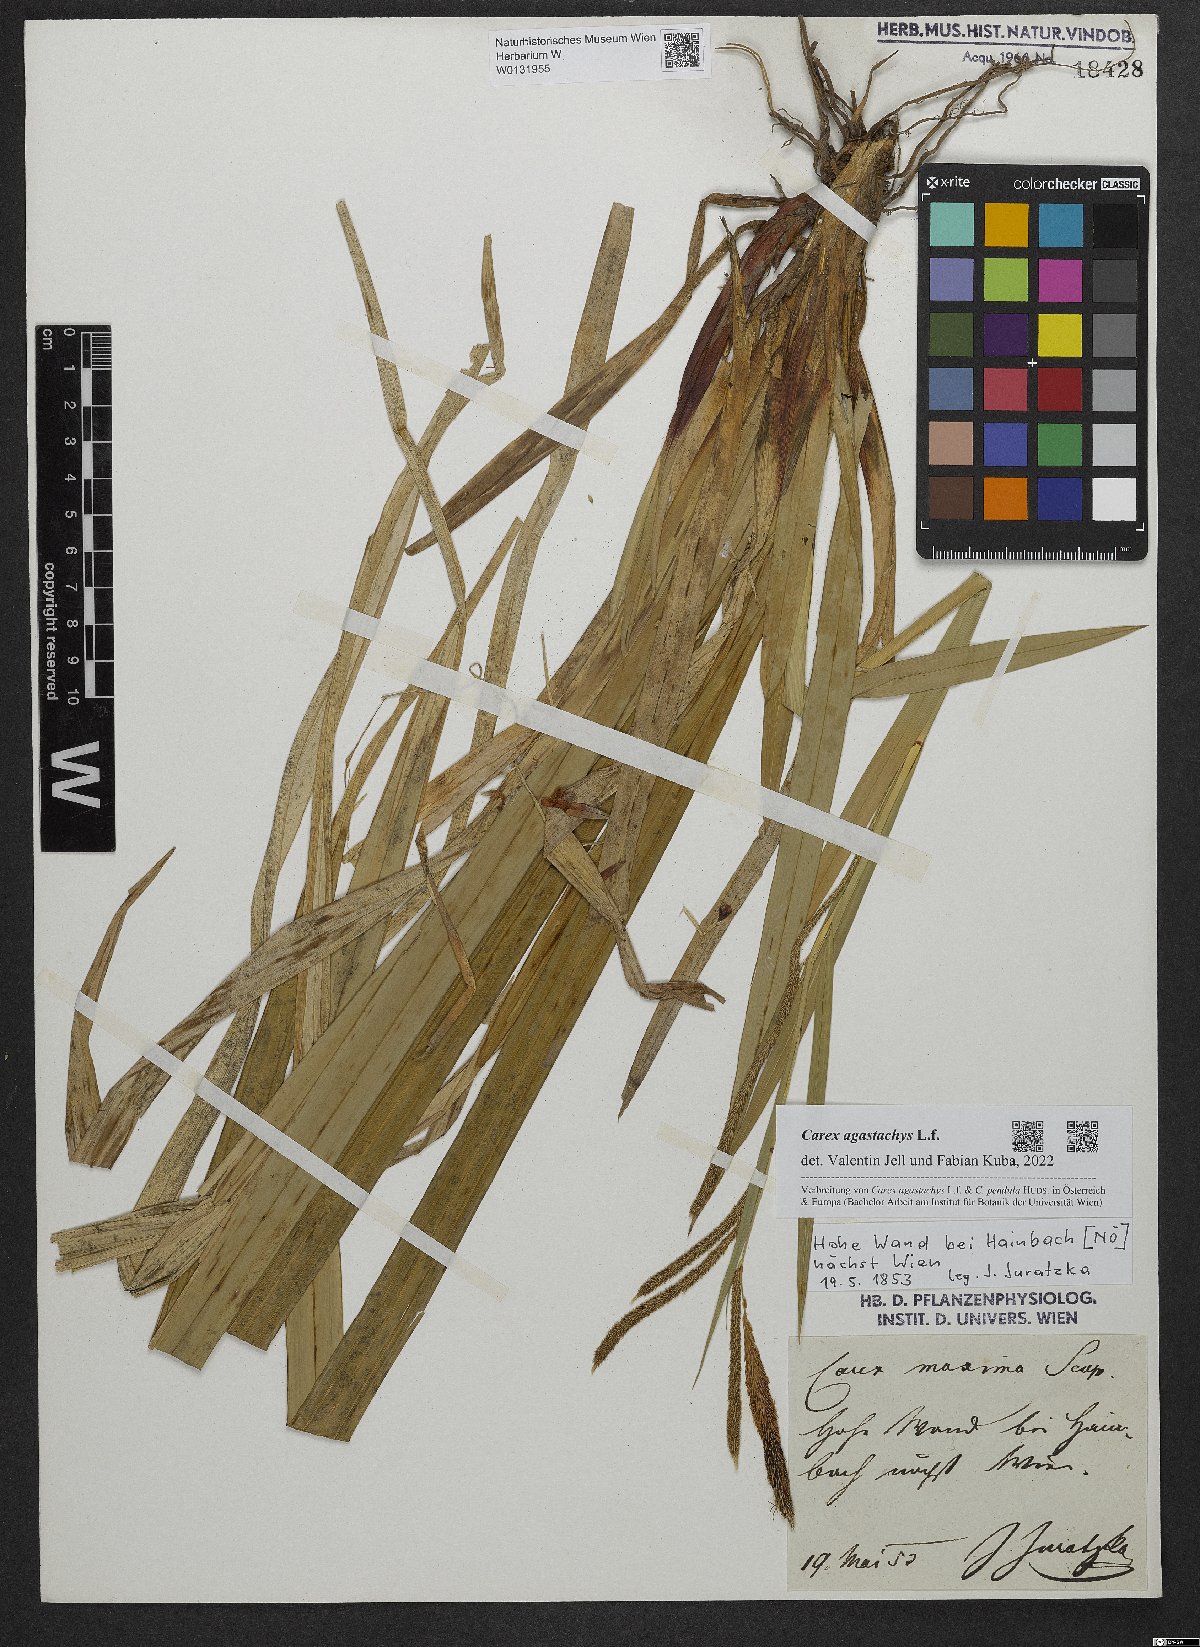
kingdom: Plantae
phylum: Tracheophyta
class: Liliopsida
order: Poales
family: Cyperaceae
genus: Carex
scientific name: Carex agastachys
